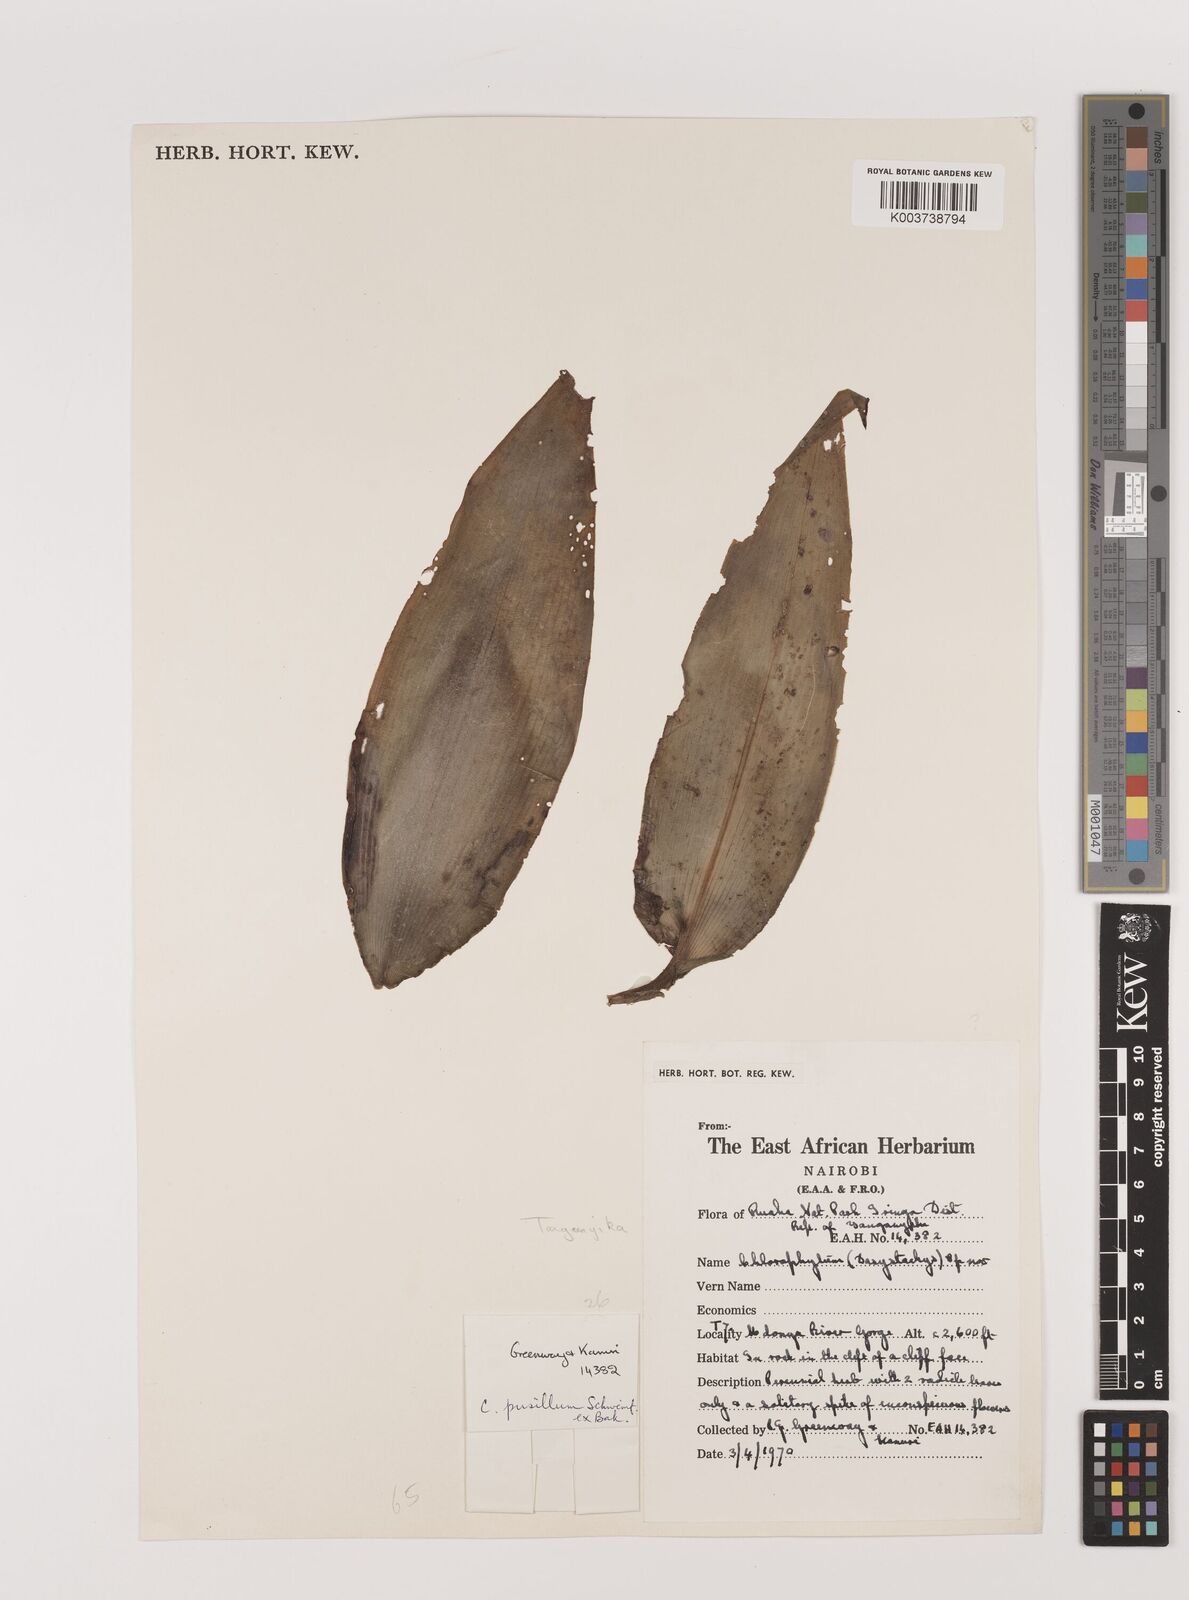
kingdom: Plantae
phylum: Tracheophyta
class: Liliopsida
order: Asparagales
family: Asparagaceae
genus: Chlorophytum
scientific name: Chlorophytum pusillum
